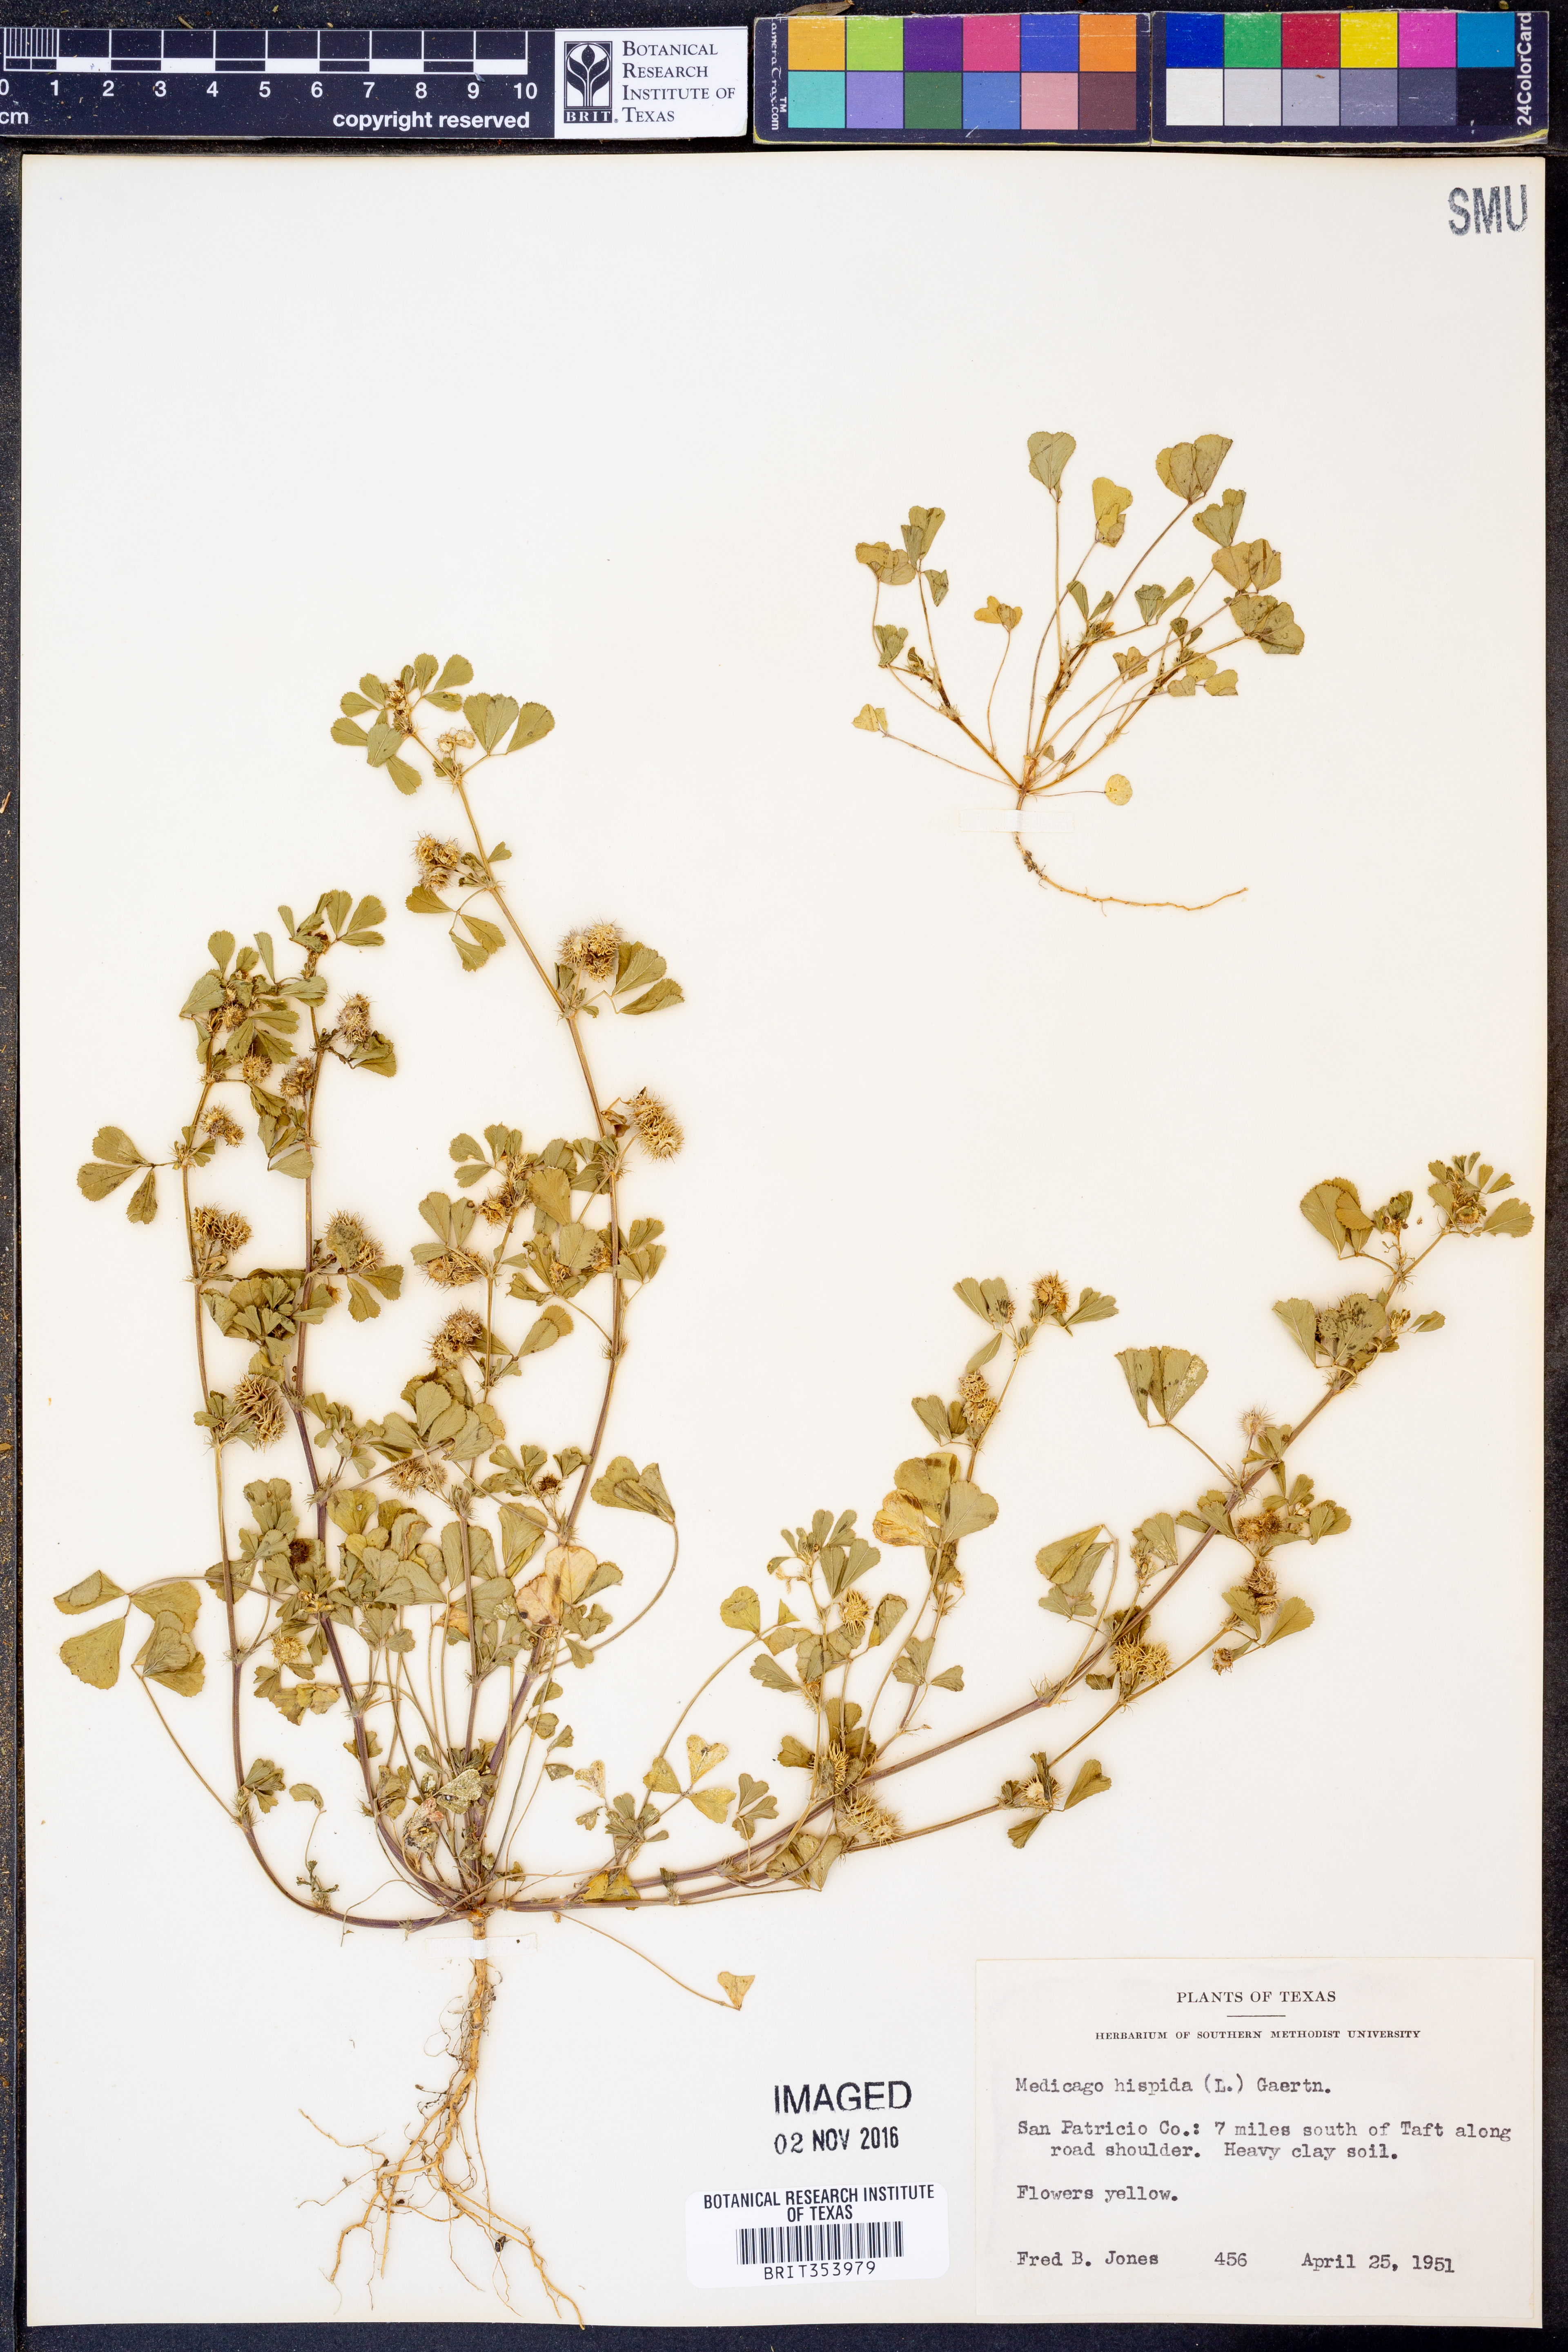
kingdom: Plantae
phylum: Tracheophyta
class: Magnoliopsida
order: Fabales
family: Fabaceae
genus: Medicago
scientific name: Medicago polymorpha
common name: Burclover
